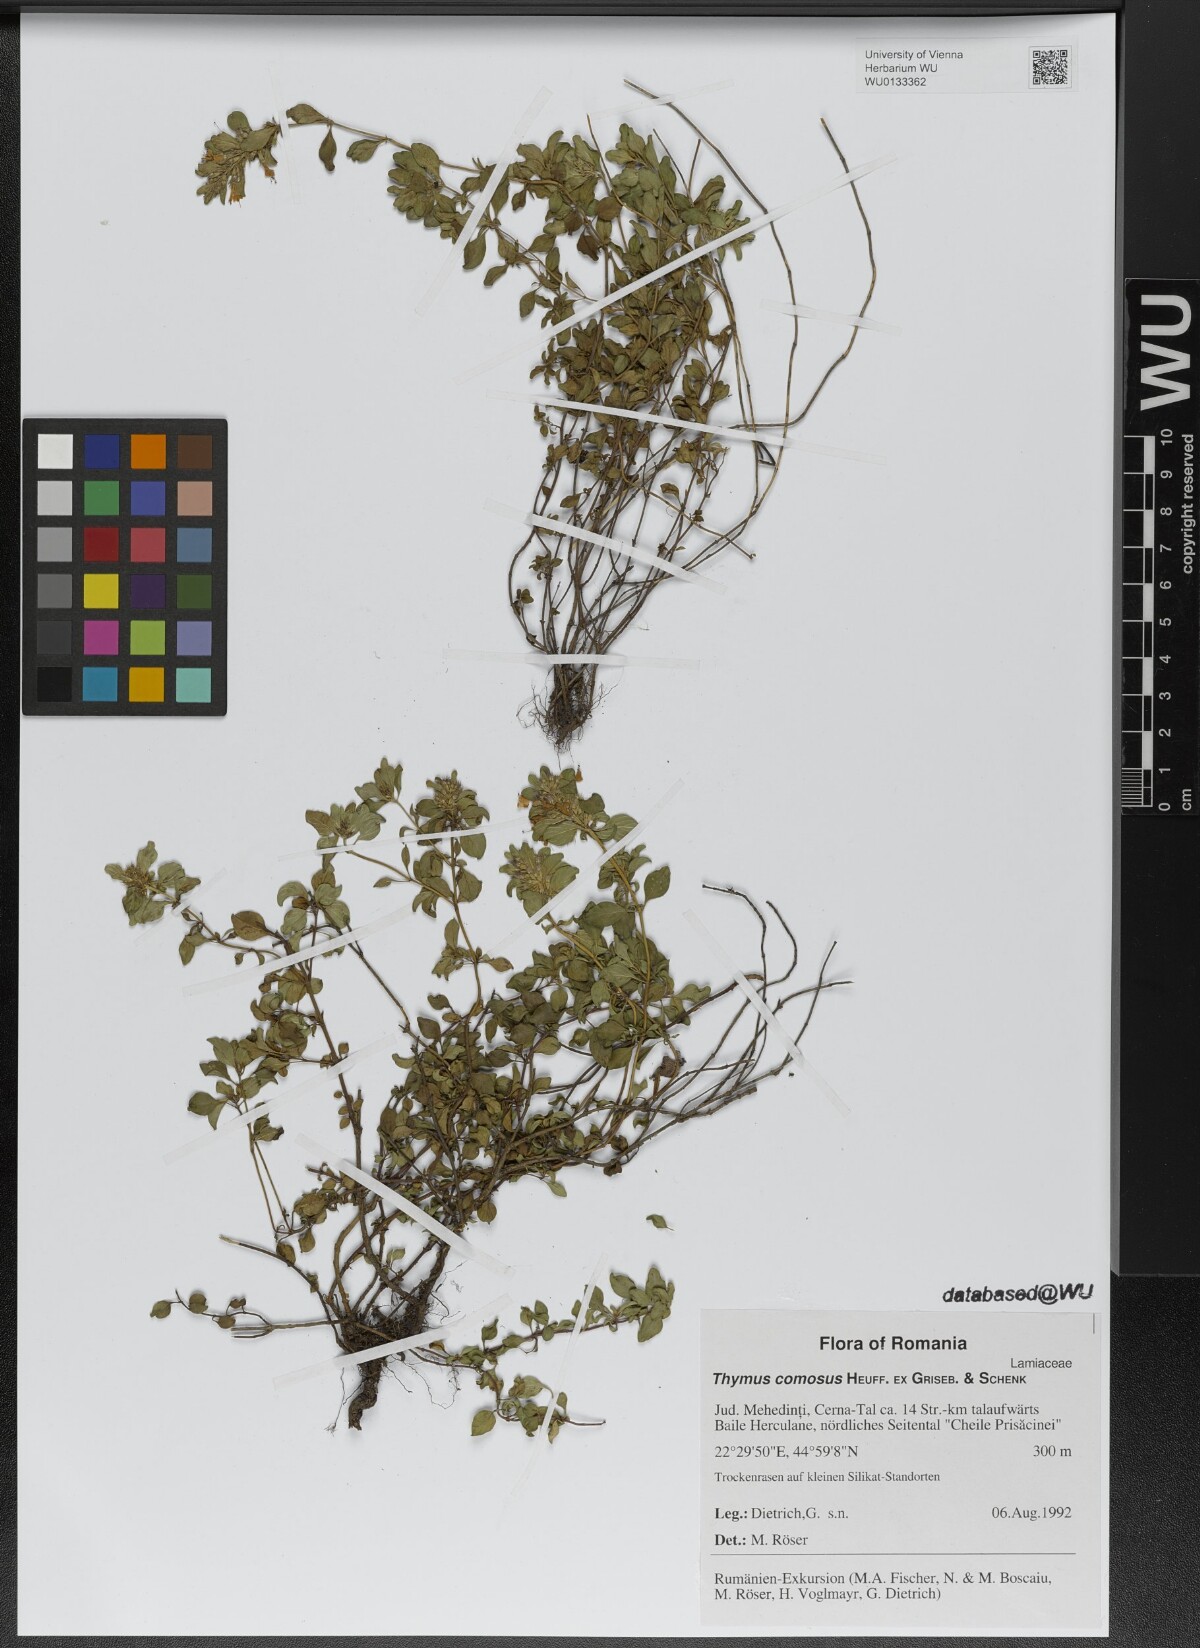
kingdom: Plantae
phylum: Tracheophyta
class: Magnoliopsida
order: Lamiales
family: Lamiaceae
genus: Thymus
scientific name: Thymus comosus
